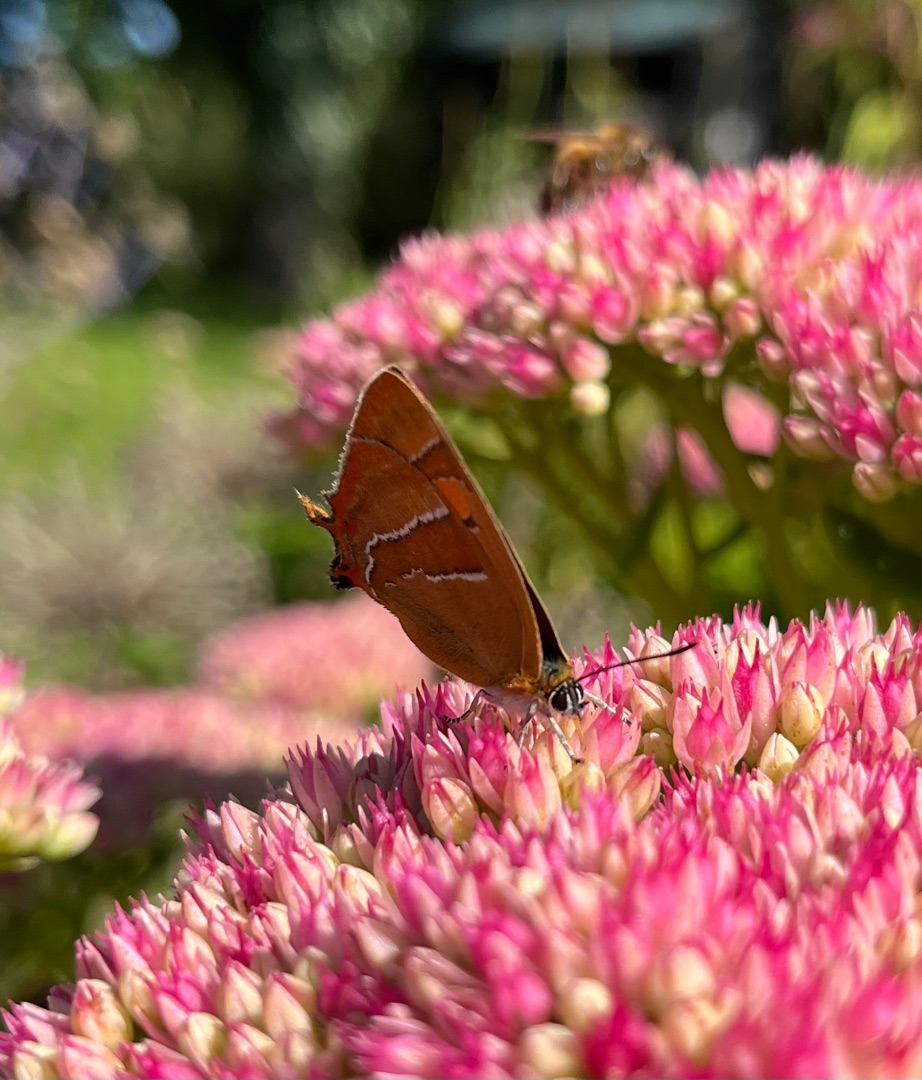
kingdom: Animalia
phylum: Arthropoda
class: Insecta
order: Lepidoptera
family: Lycaenidae
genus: Thecla
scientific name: Thecla betulae
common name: Guldhale
